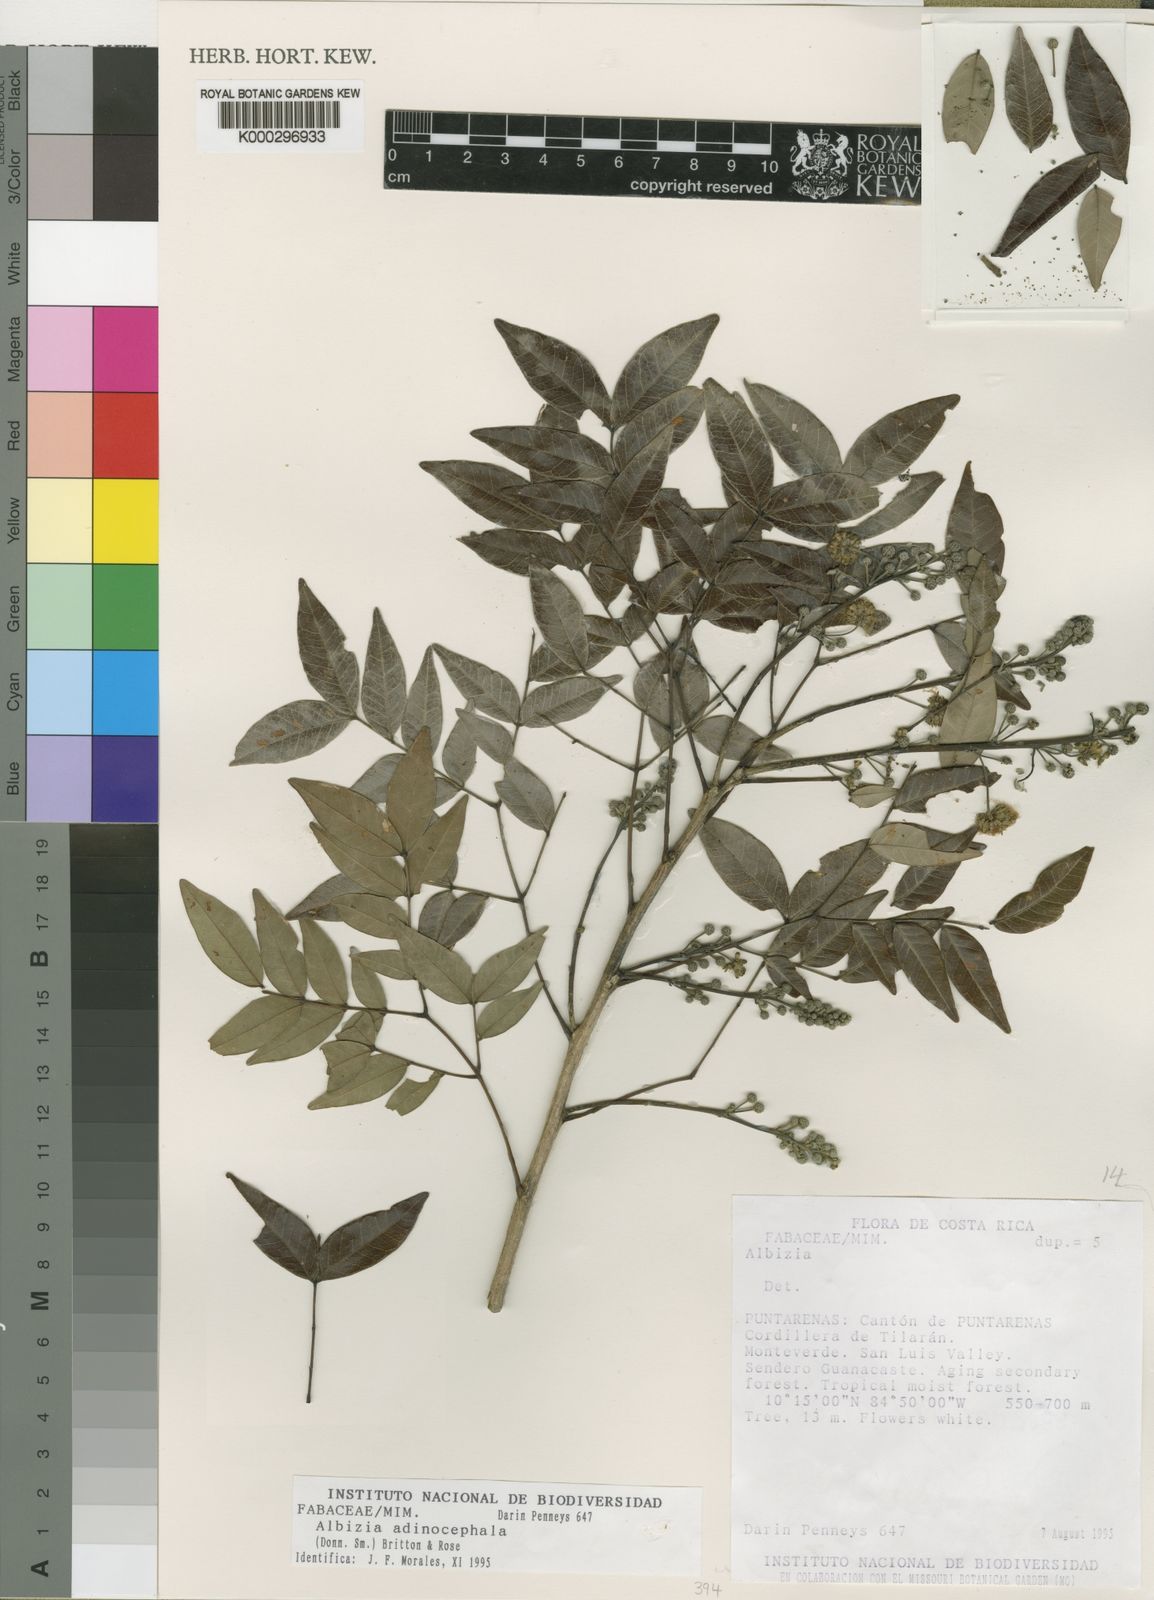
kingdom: Plantae
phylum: Tracheophyta
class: Magnoliopsida
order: Fabales
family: Fabaceae
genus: Albizia
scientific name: Albizia adinocephala
